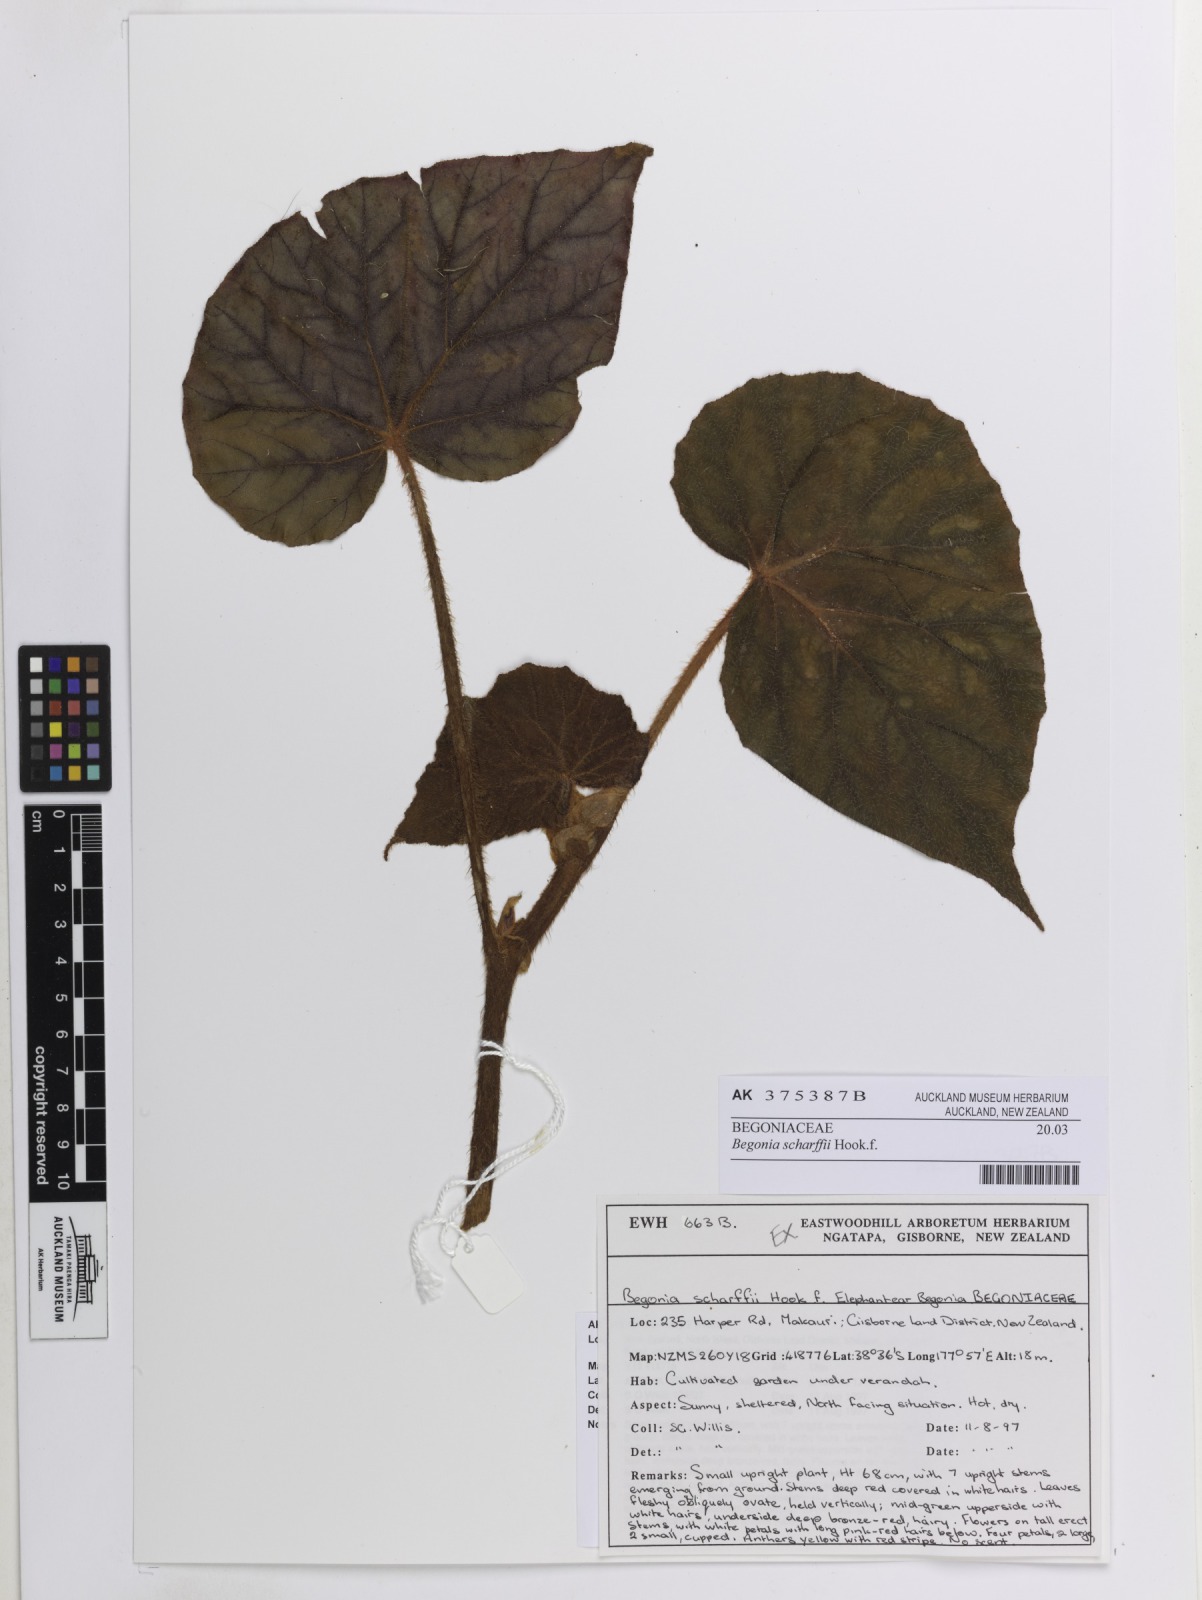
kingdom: Plantae
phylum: Tracheophyta
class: Magnoliopsida
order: Cucurbitales
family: Begoniaceae
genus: Begonia
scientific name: Begonia scharffiana
